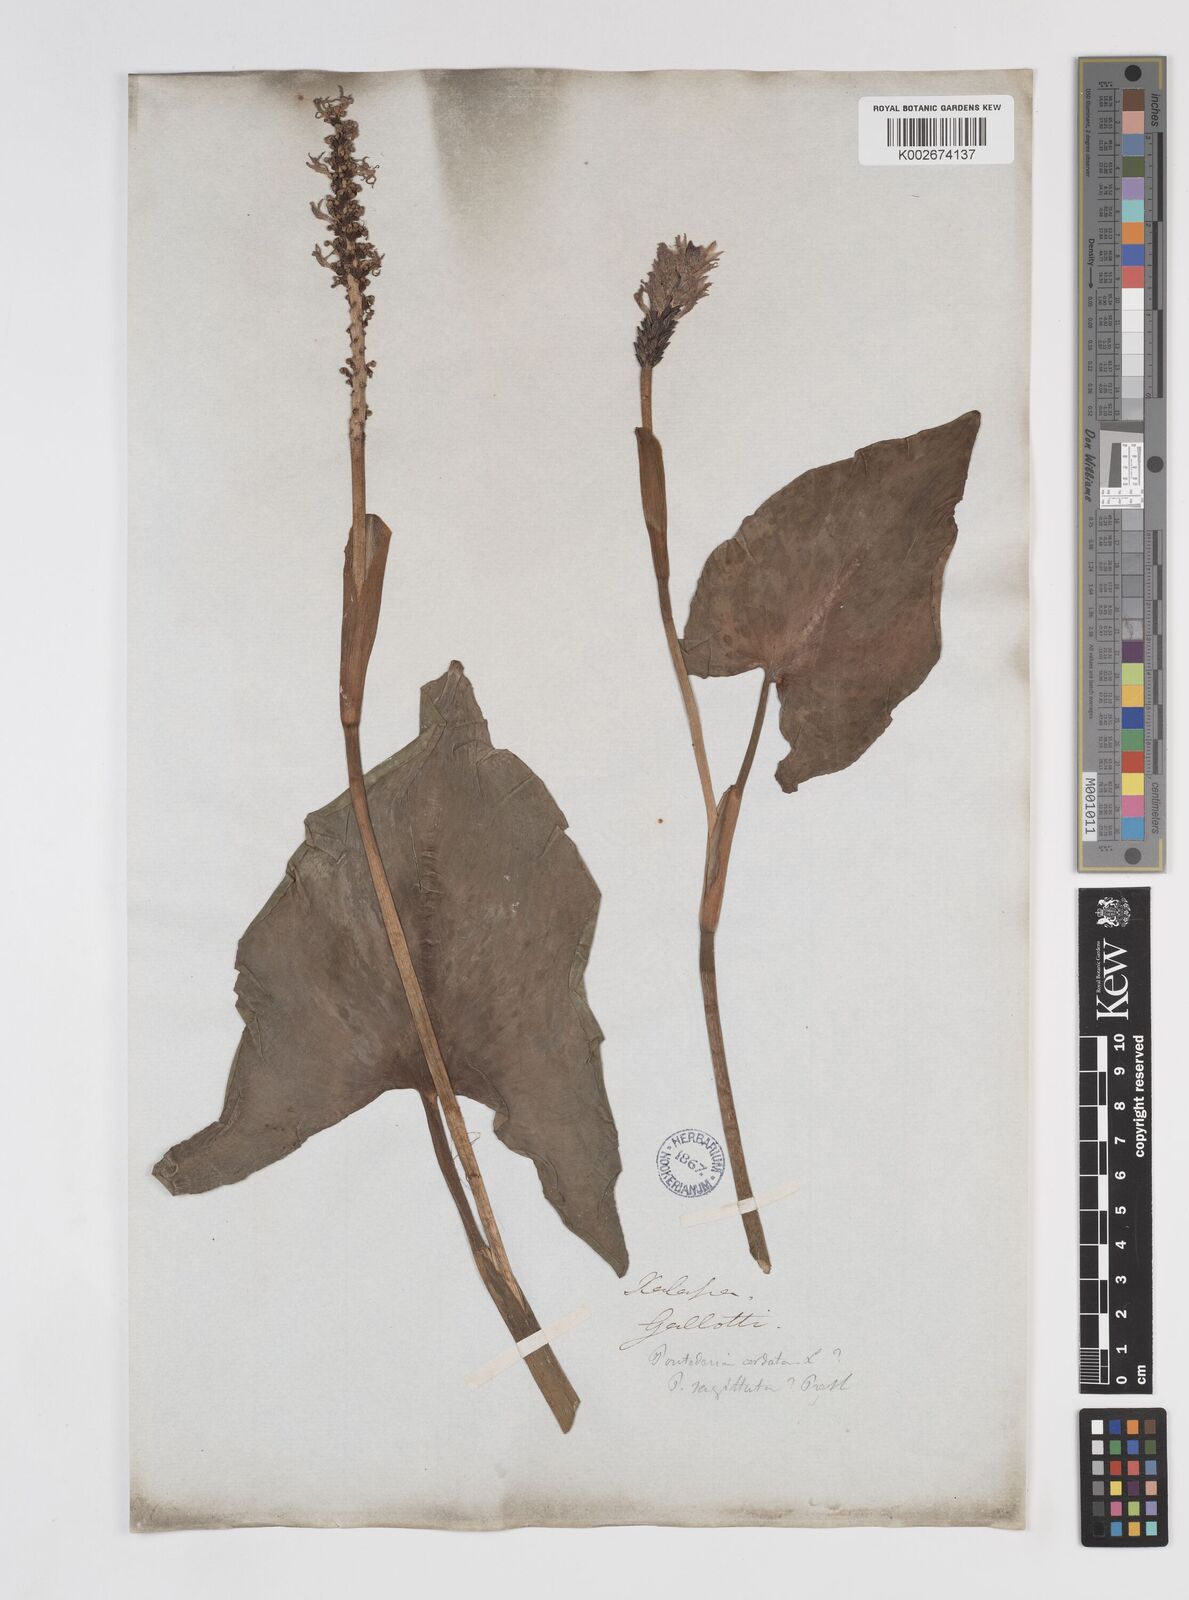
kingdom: Plantae
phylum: Tracheophyta
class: Liliopsida
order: Commelinales
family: Pontederiaceae
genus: Pontederia
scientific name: Pontederia sagittata
